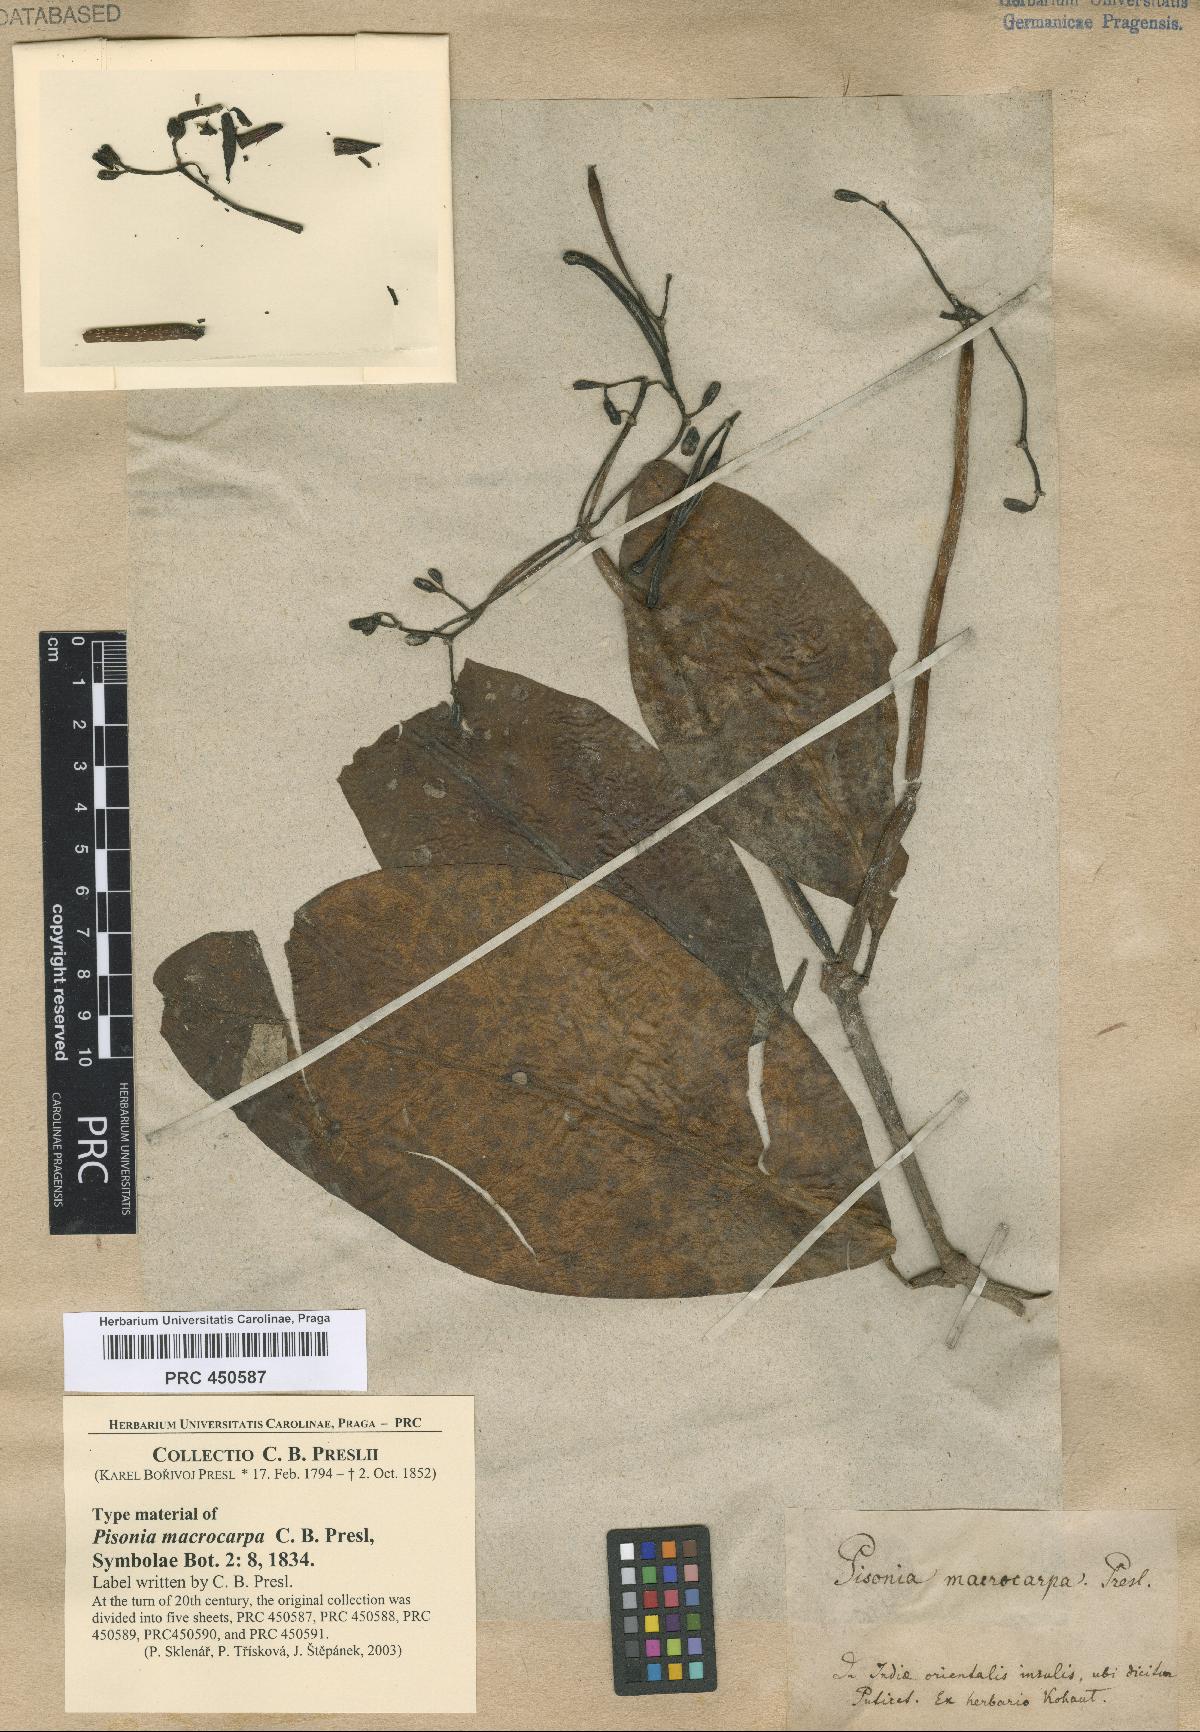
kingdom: Plantae
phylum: Tracheophyta
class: Magnoliopsida
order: Caryophyllales
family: Nyctaginaceae
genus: Ceodes
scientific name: Ceodes umbellifera
